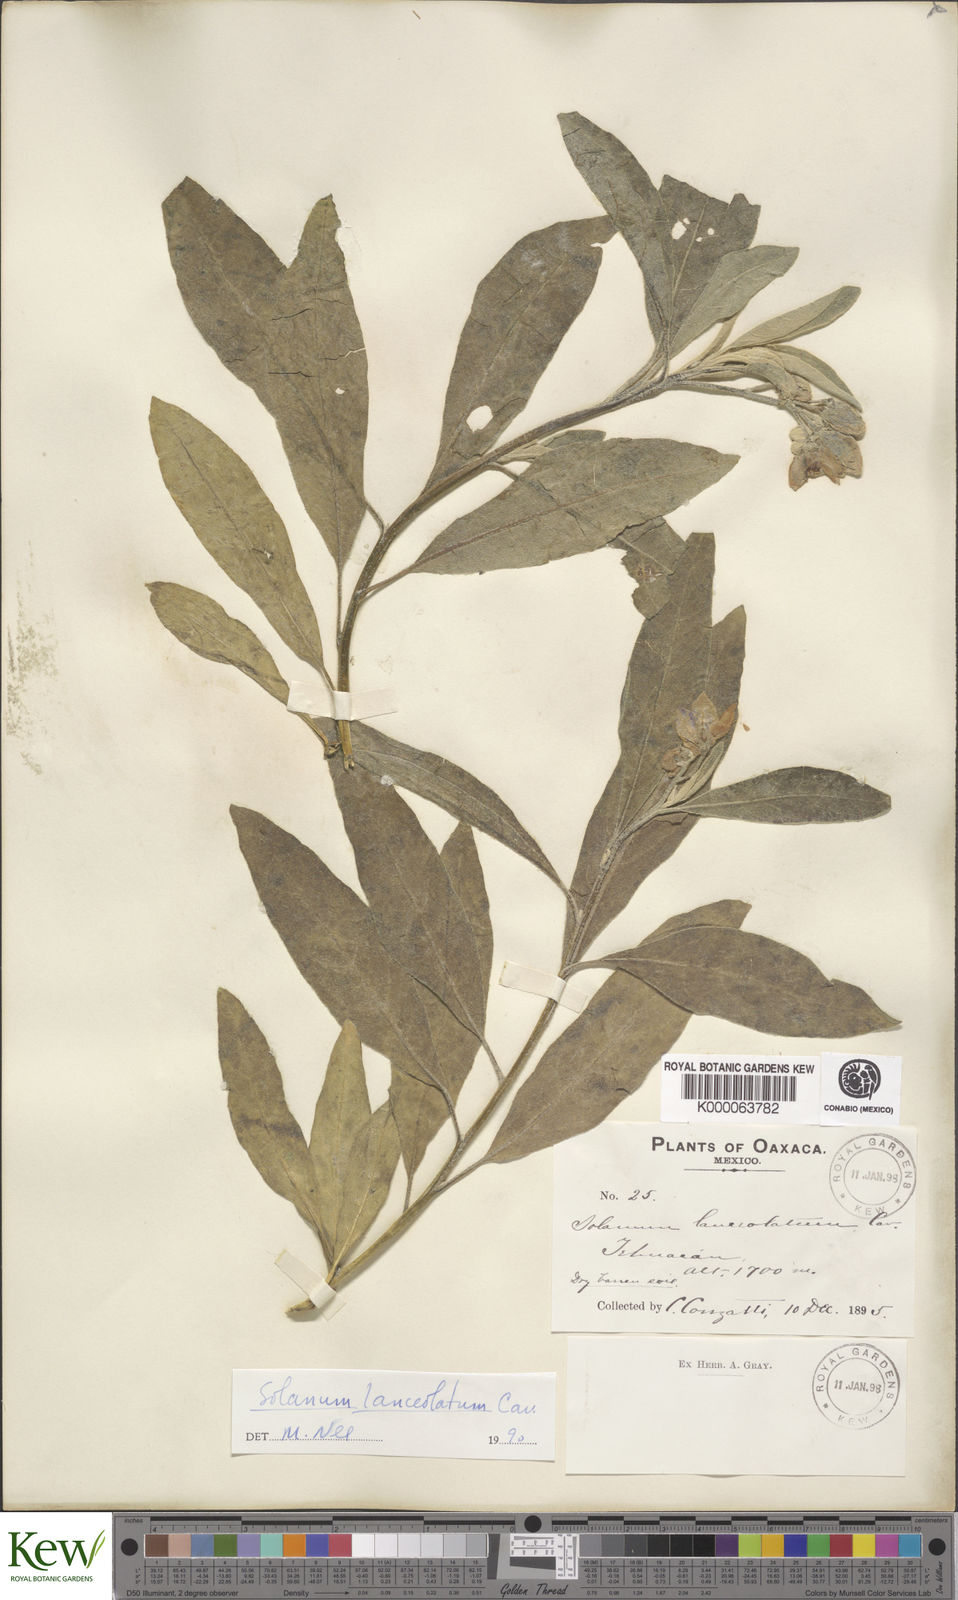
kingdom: Plantae
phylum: Tracheophyta
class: Magnoliopsida
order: Solanales
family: Solanaceae
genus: Solanum
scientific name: Solanum lanceolatum
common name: Orangeberry nightshade
